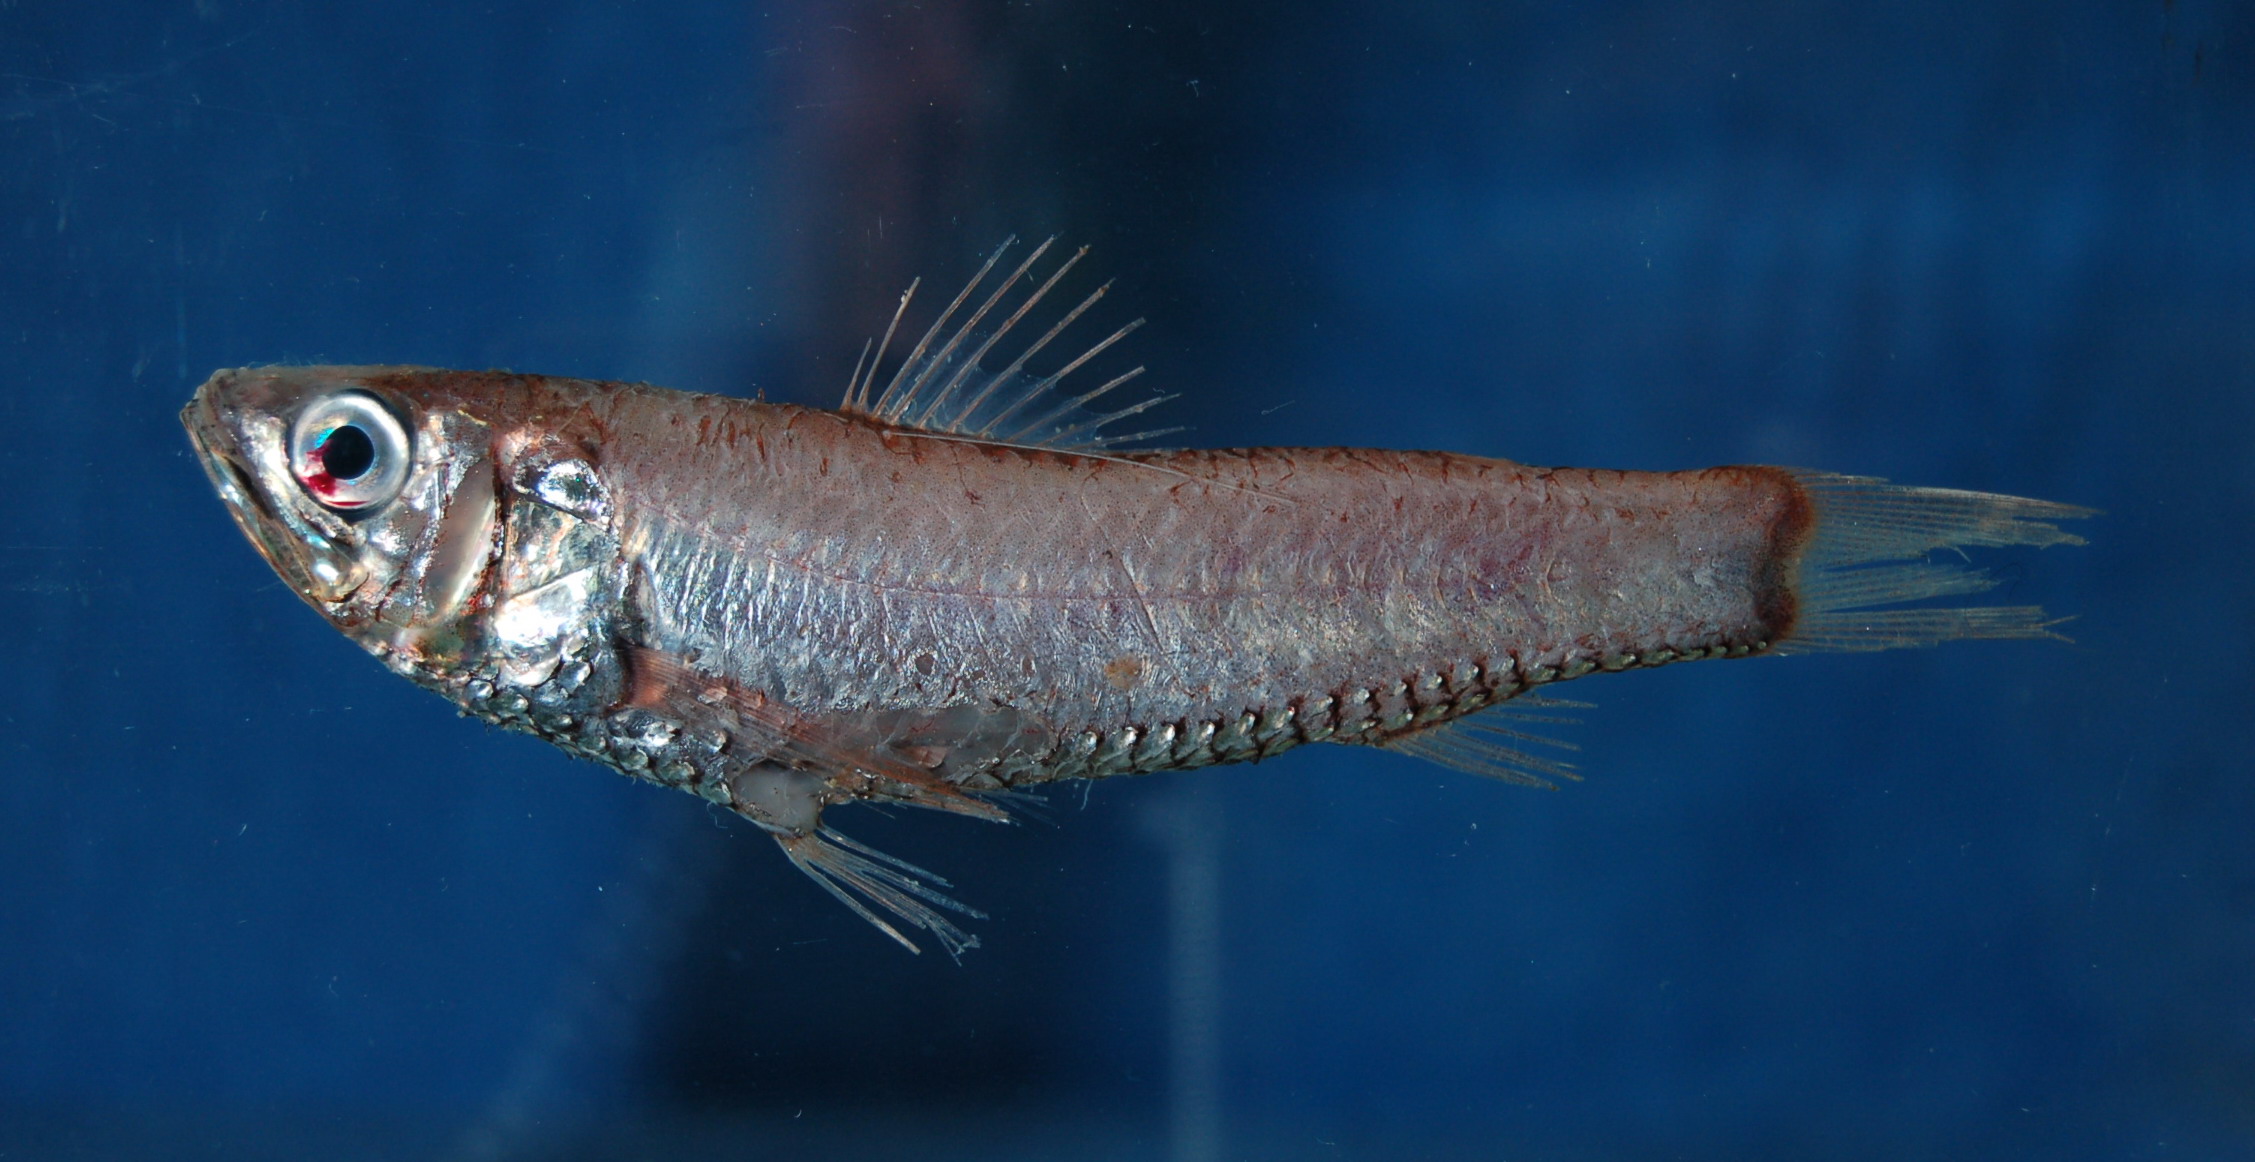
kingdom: Animalia
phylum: Chordata
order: Myctophiformes
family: Neoscopelidae
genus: Neoscopelus
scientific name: Neoscopelus macrolepidotus
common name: Large-scaled lantern fish
